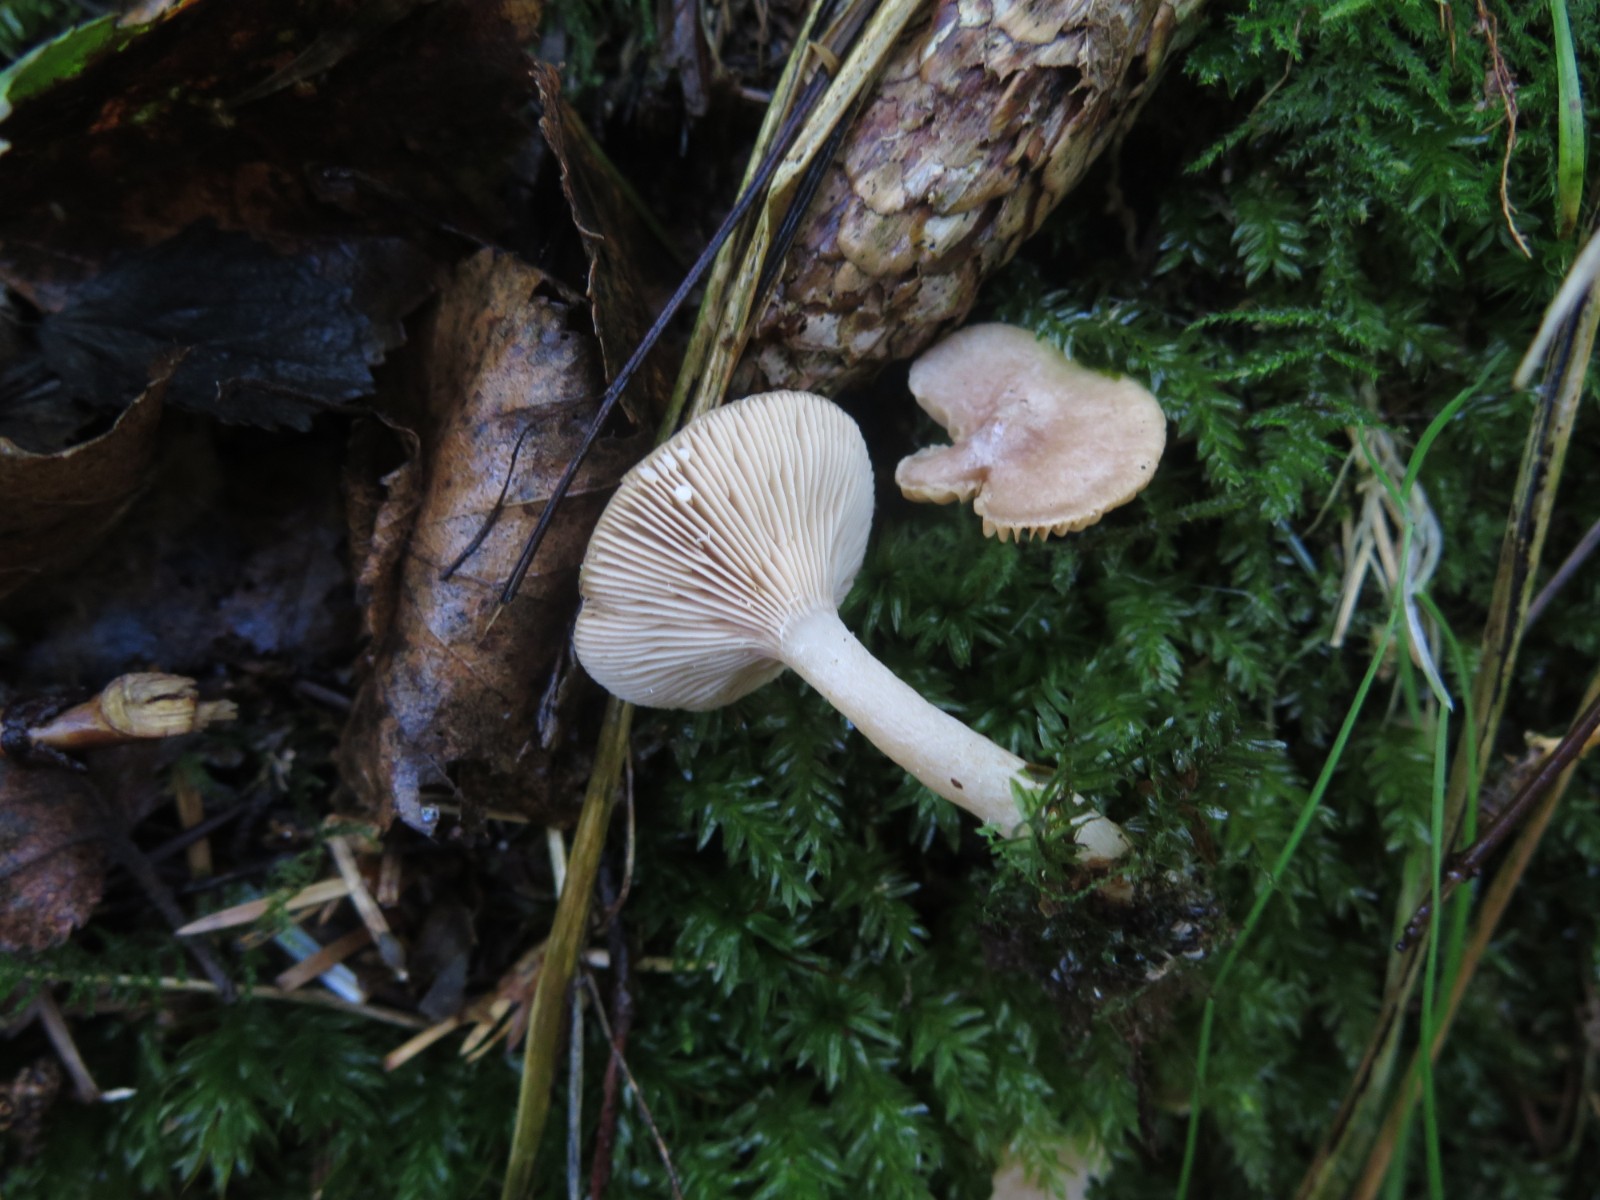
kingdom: Fungi
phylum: Basidiomycota
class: Agaricomycetes
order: Russulales
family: Russulaceae
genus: Lactarius
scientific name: Lactarius glyciosmus
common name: kokos-mælkehat
